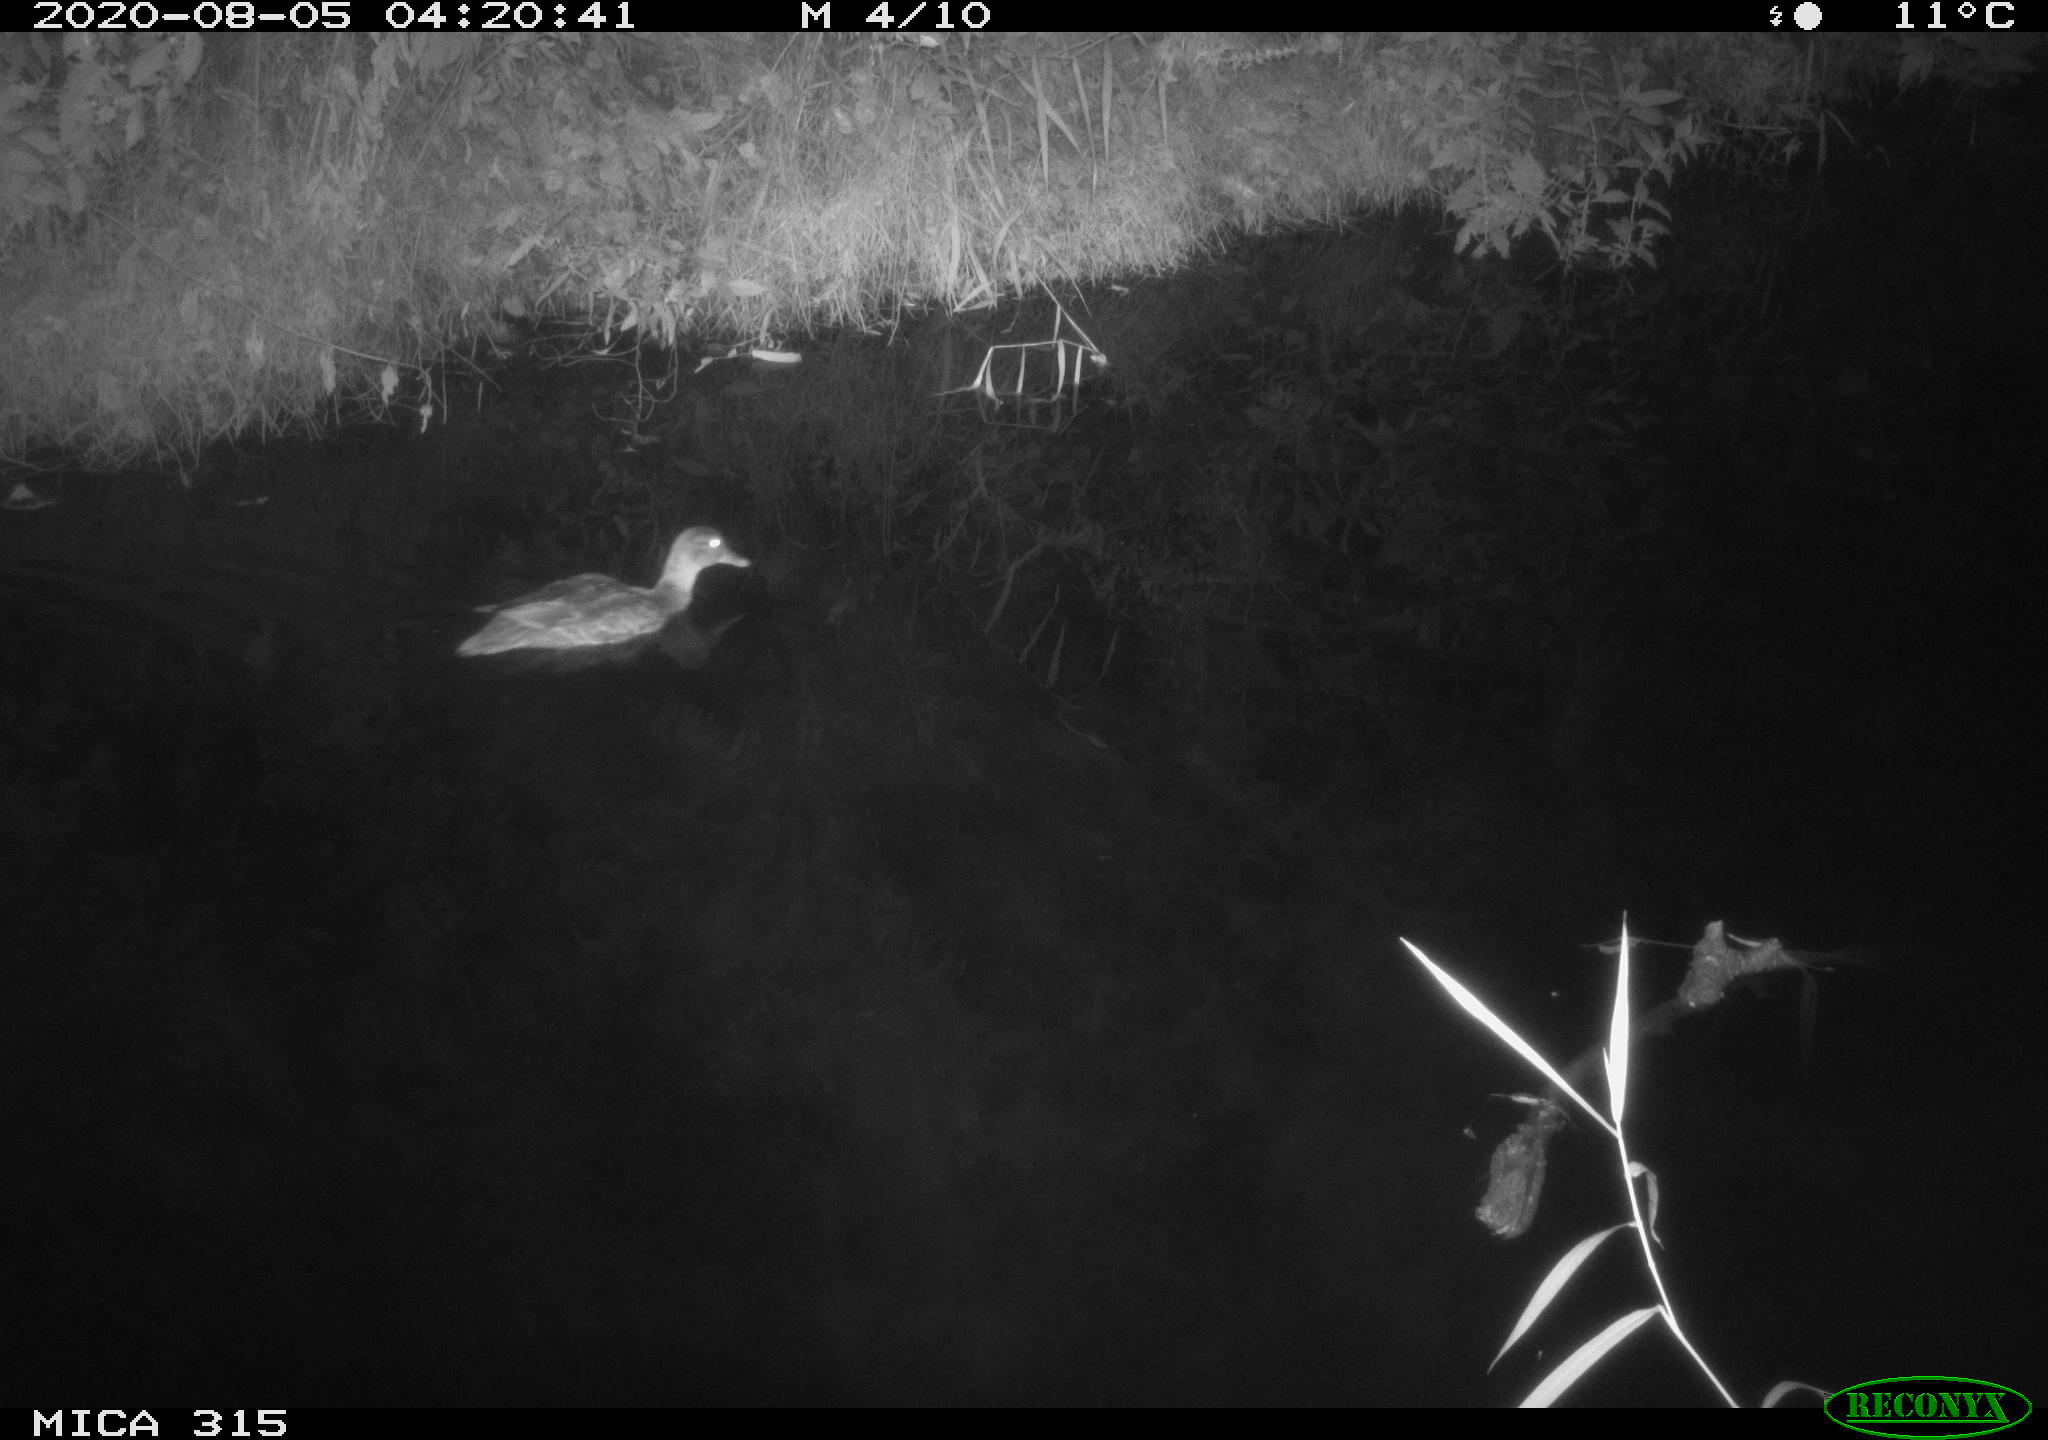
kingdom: Animalia
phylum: Chordata
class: Aves
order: Anseriformes
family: Anatidae
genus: Anas
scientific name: Anas platyrhynchos
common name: Mallard
